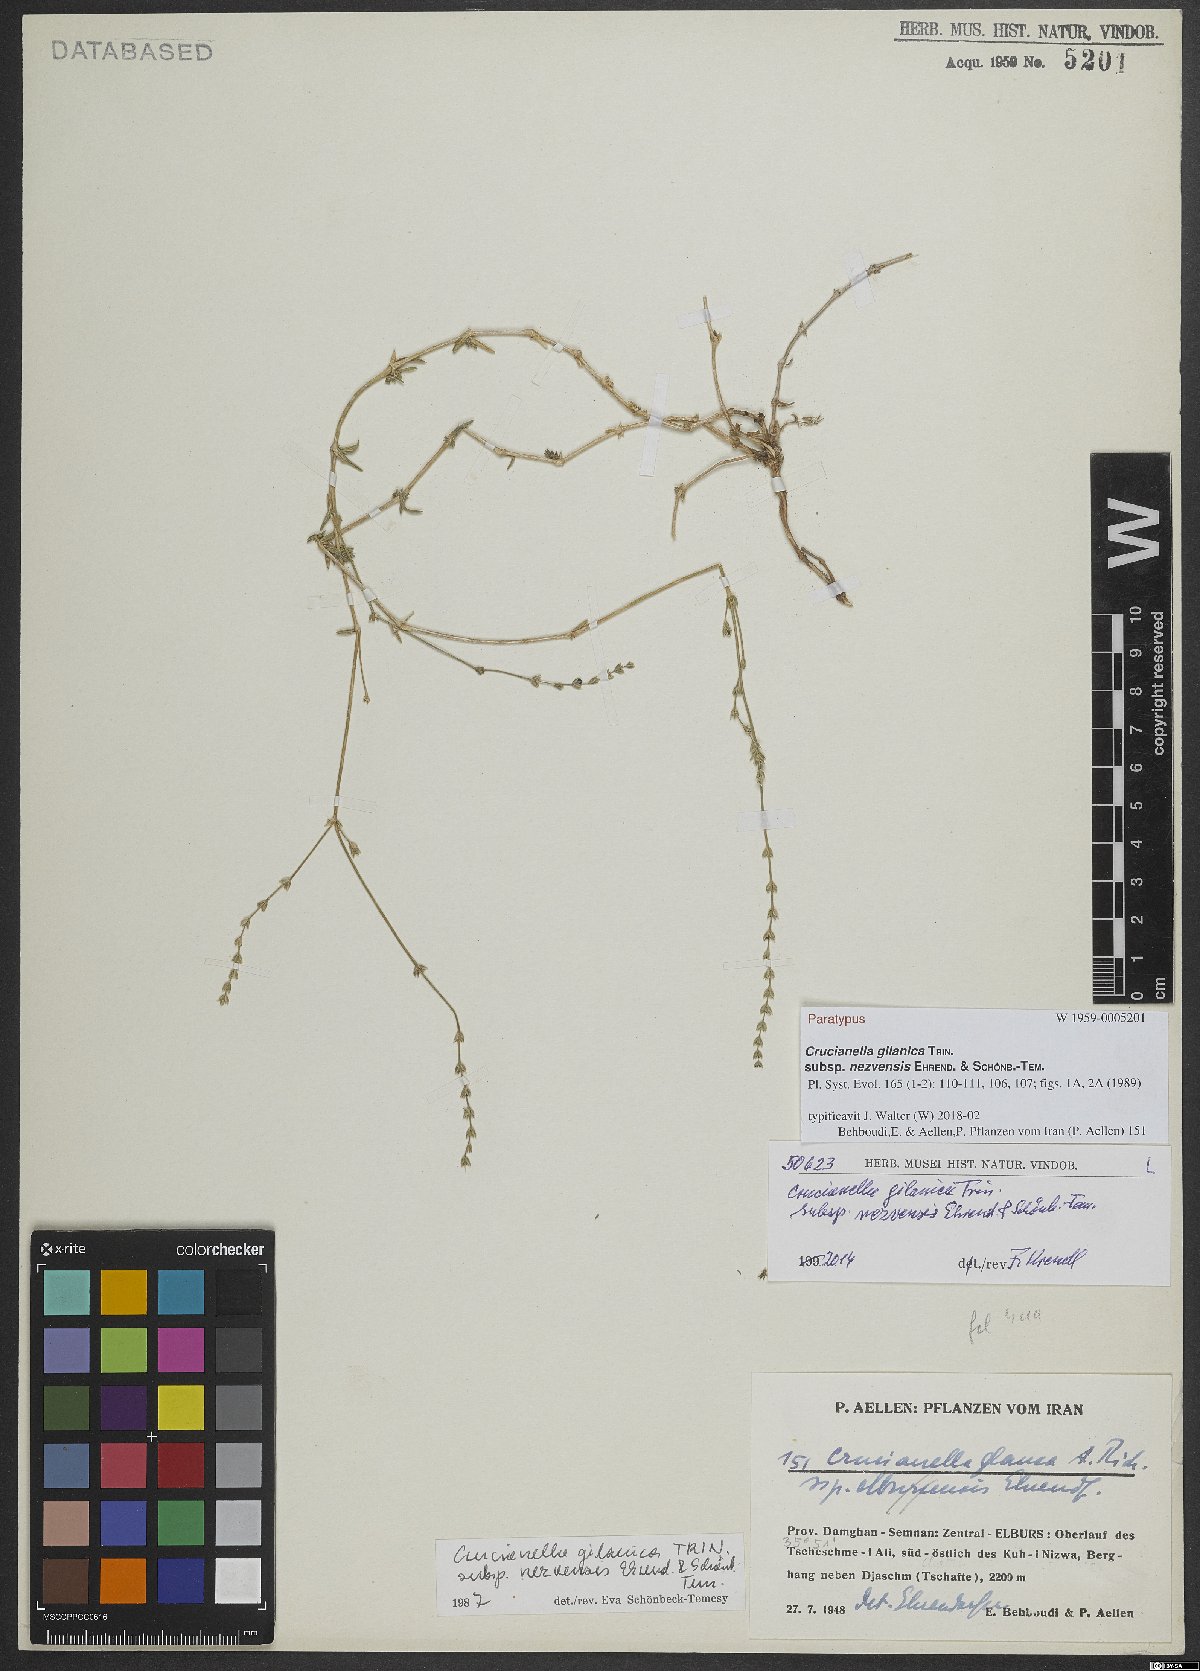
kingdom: Plantae
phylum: Tracheophyta
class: Magnoliopsida
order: Gentianales
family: Rubiaceae
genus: Crucianella
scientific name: Crucianella gilanica
